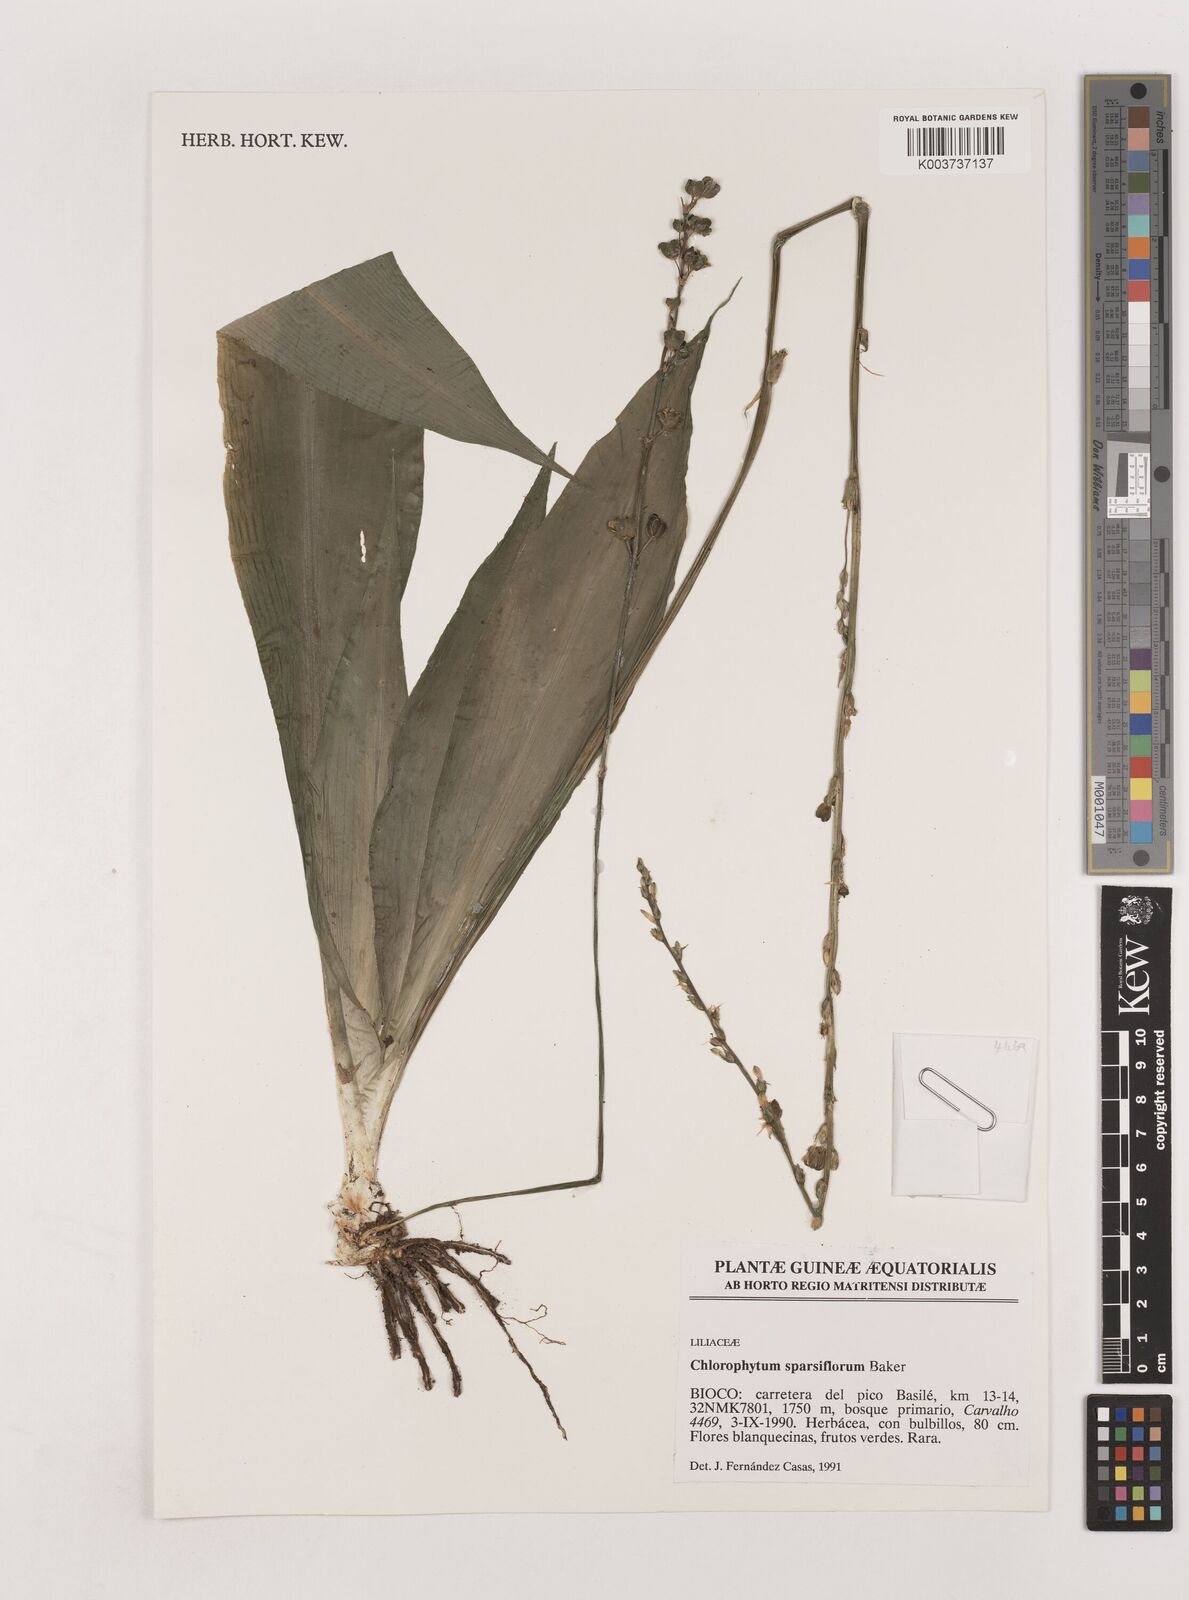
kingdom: Plantae
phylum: Tracheophyta
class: Liliopsida
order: Asparagales
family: Asparagaceae
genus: Chlorophytum
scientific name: Chlorophytum sparsiflorum
